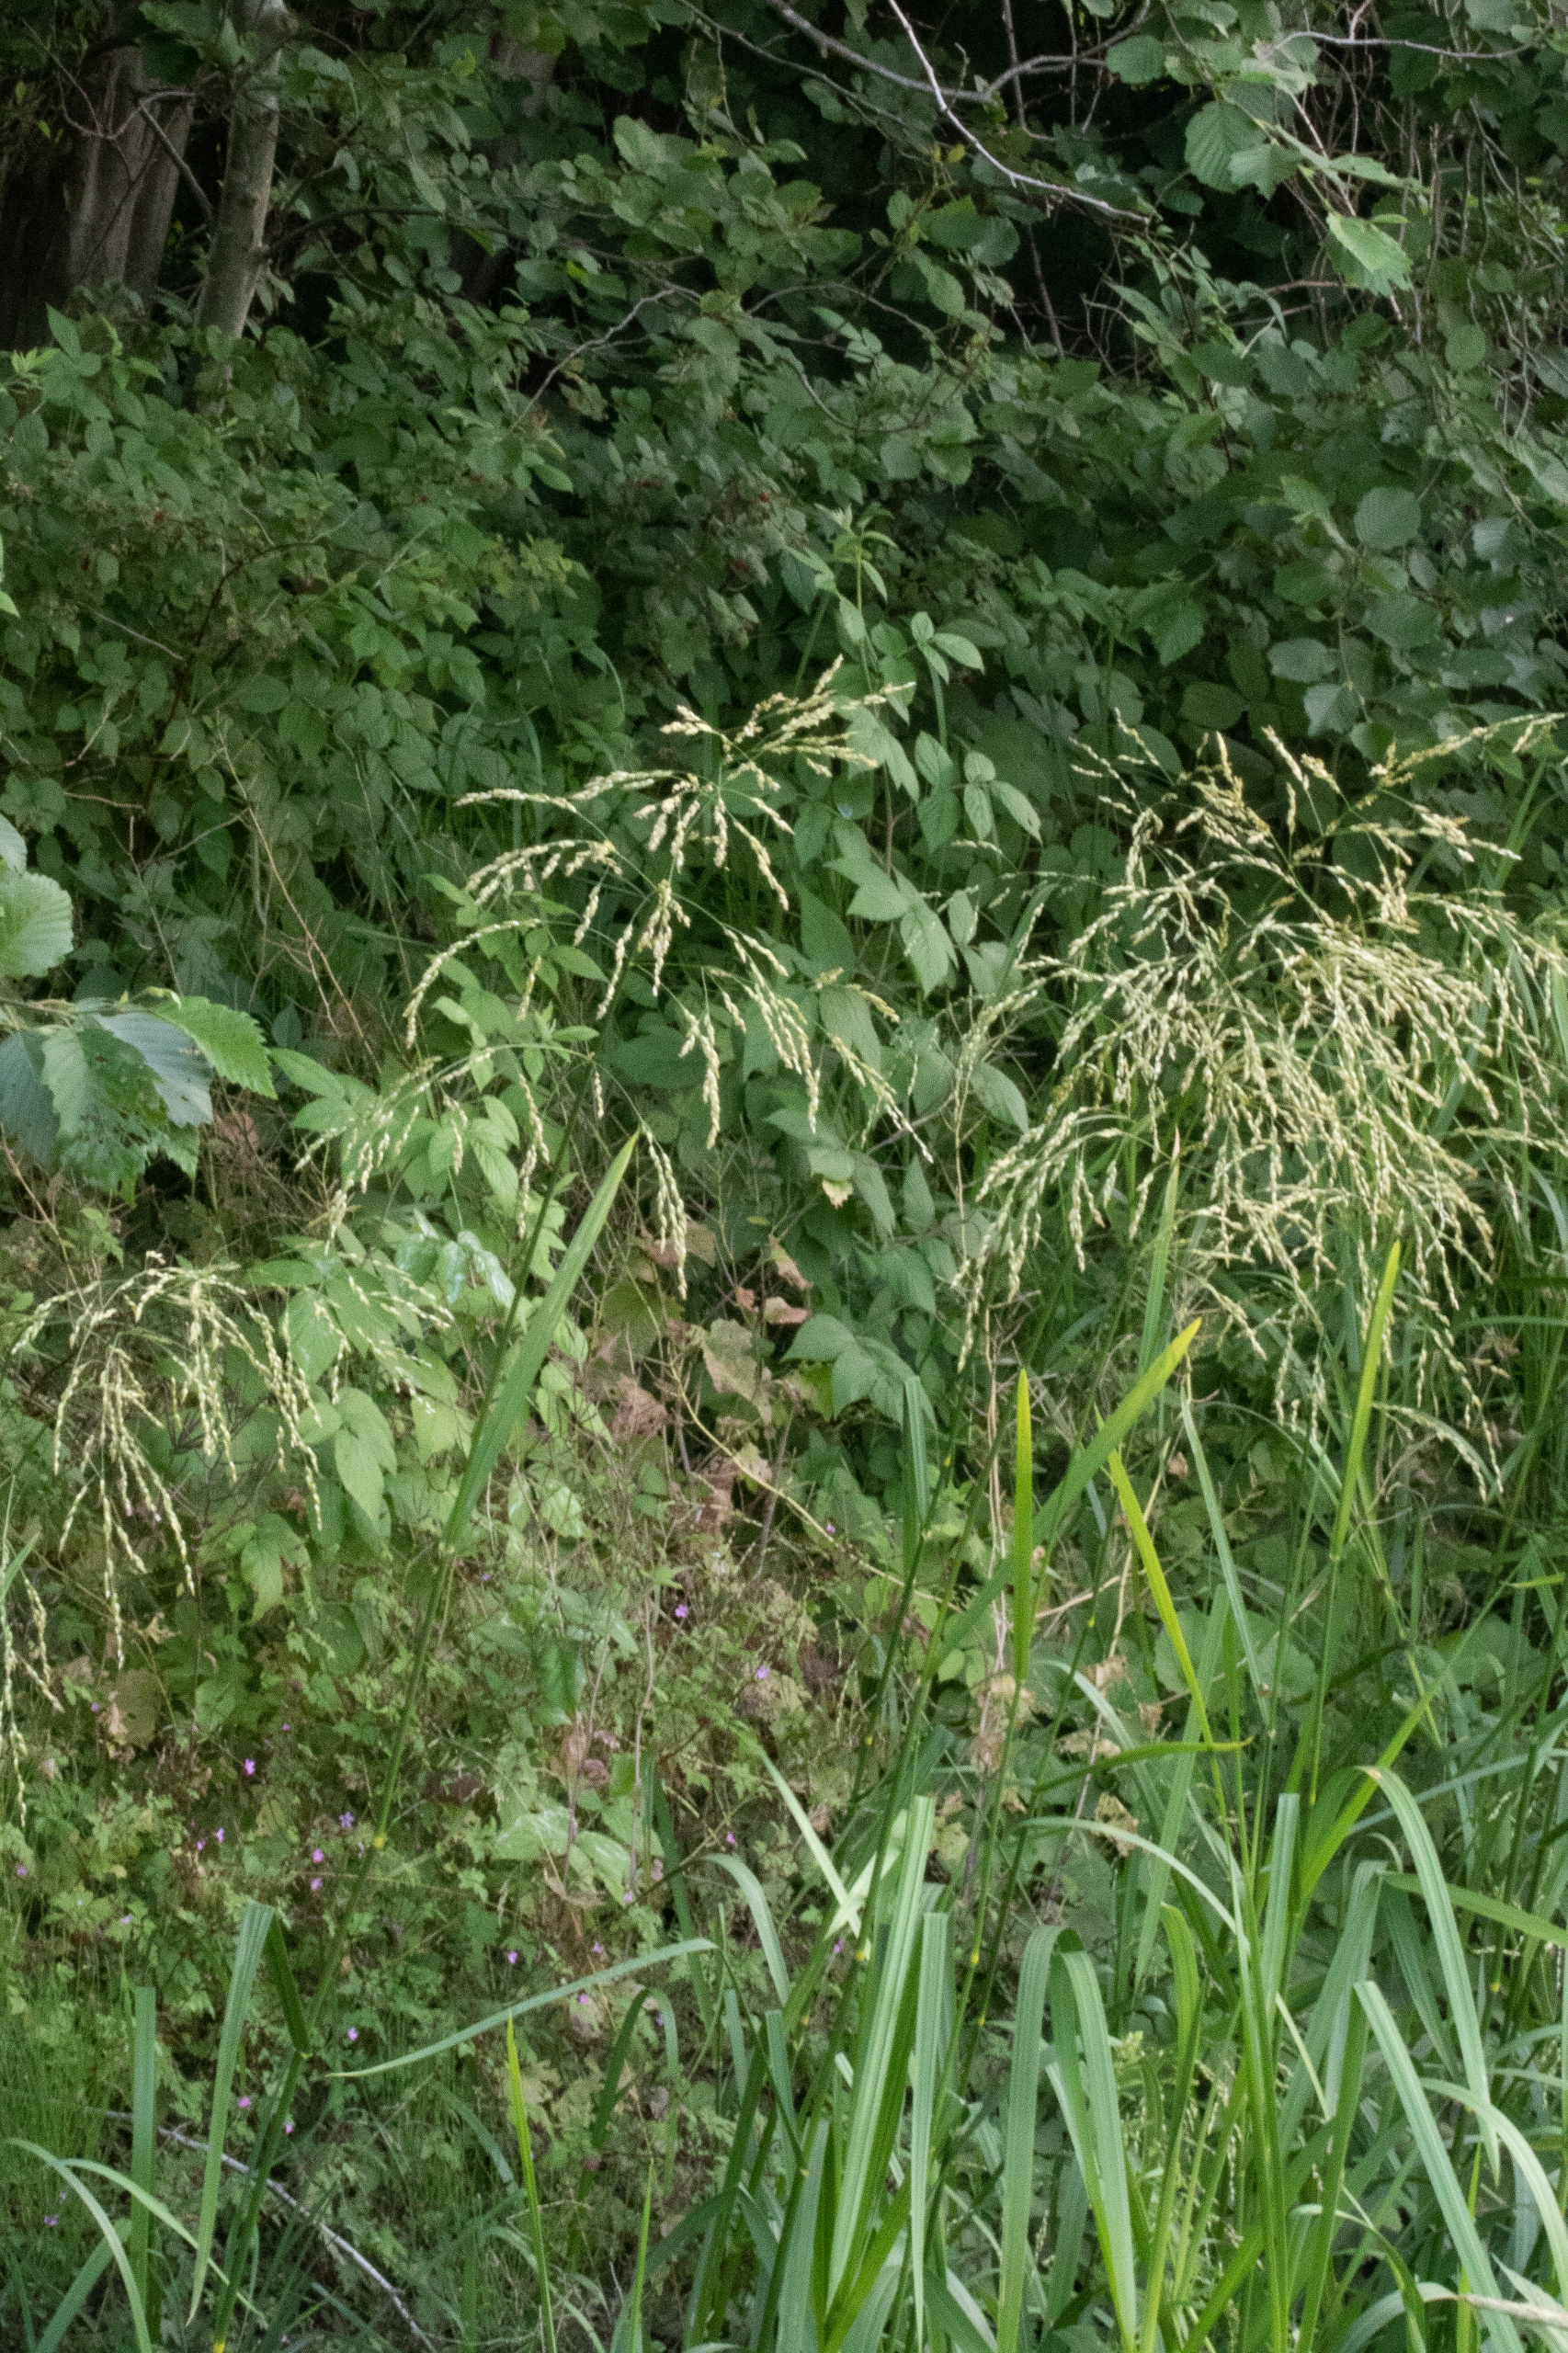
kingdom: Plantae
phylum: Tracheophyta
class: Liliopsida
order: Poales
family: Poaceae
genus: Glyceria
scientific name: Glyceria maxima
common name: Høj sødgræs
